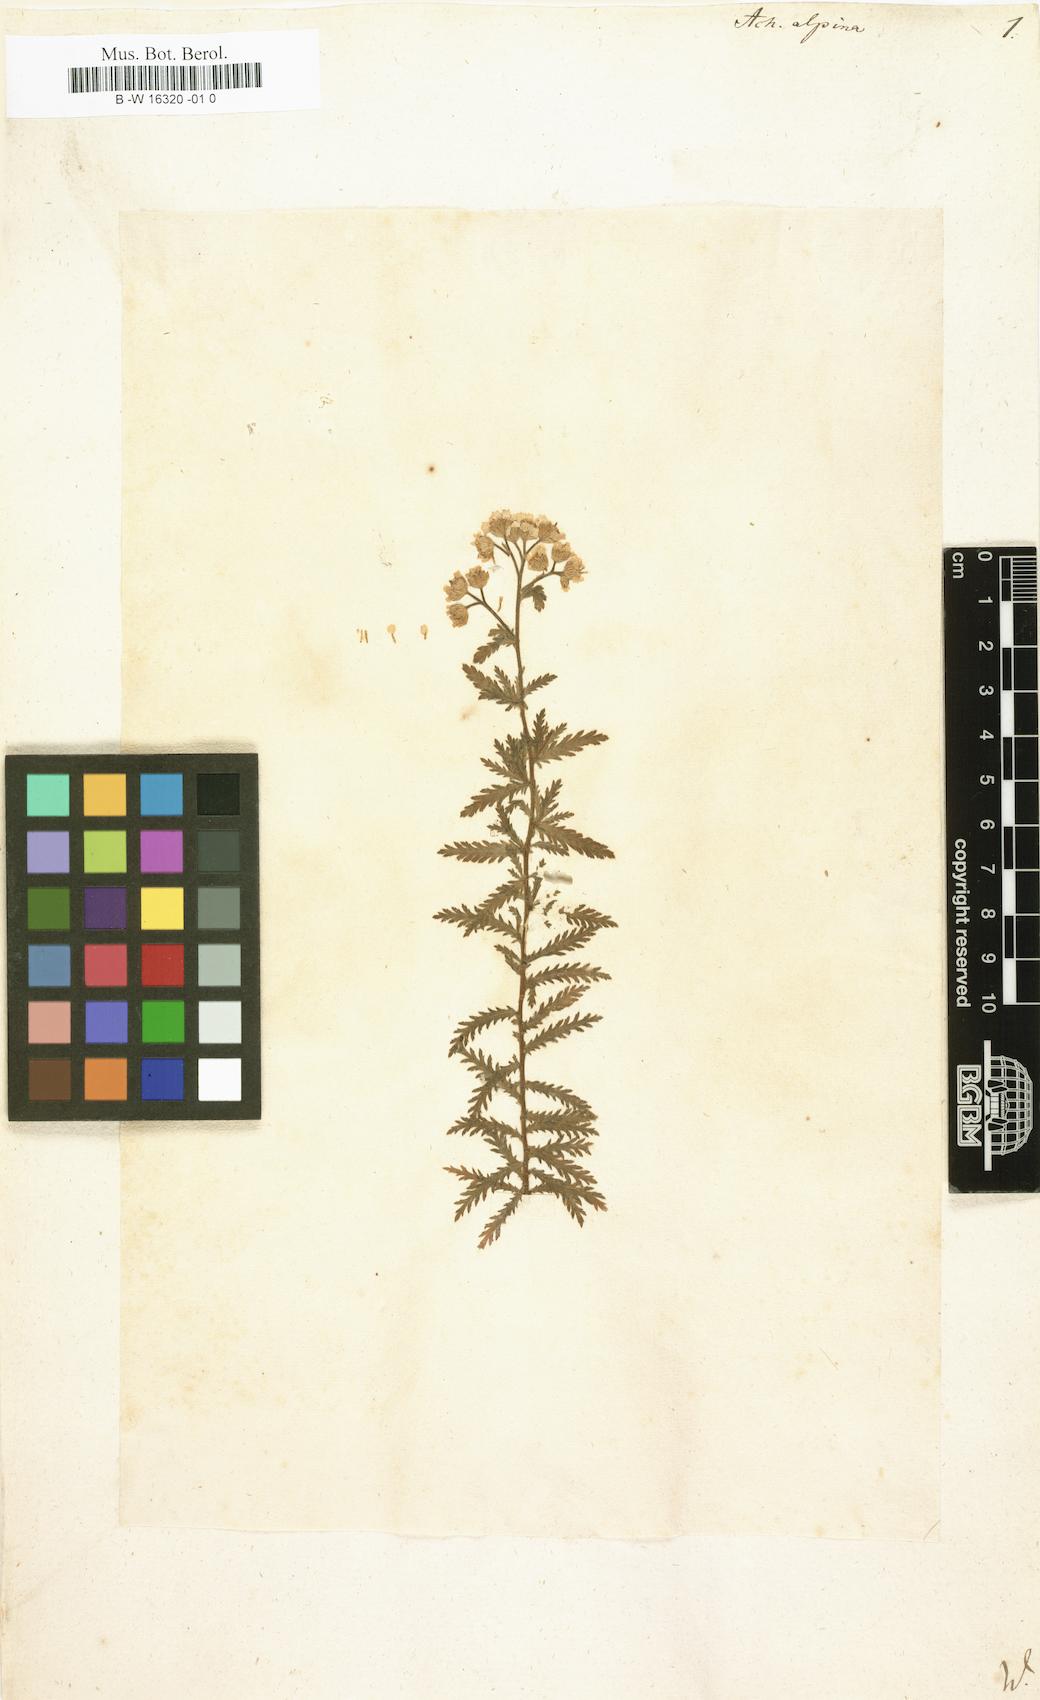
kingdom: Plantae
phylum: Tracheophyta
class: Magnoliopsida
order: Asterales
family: Asteraceae
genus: Achillea
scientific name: Achillea alpina
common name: Siberian yarrow
